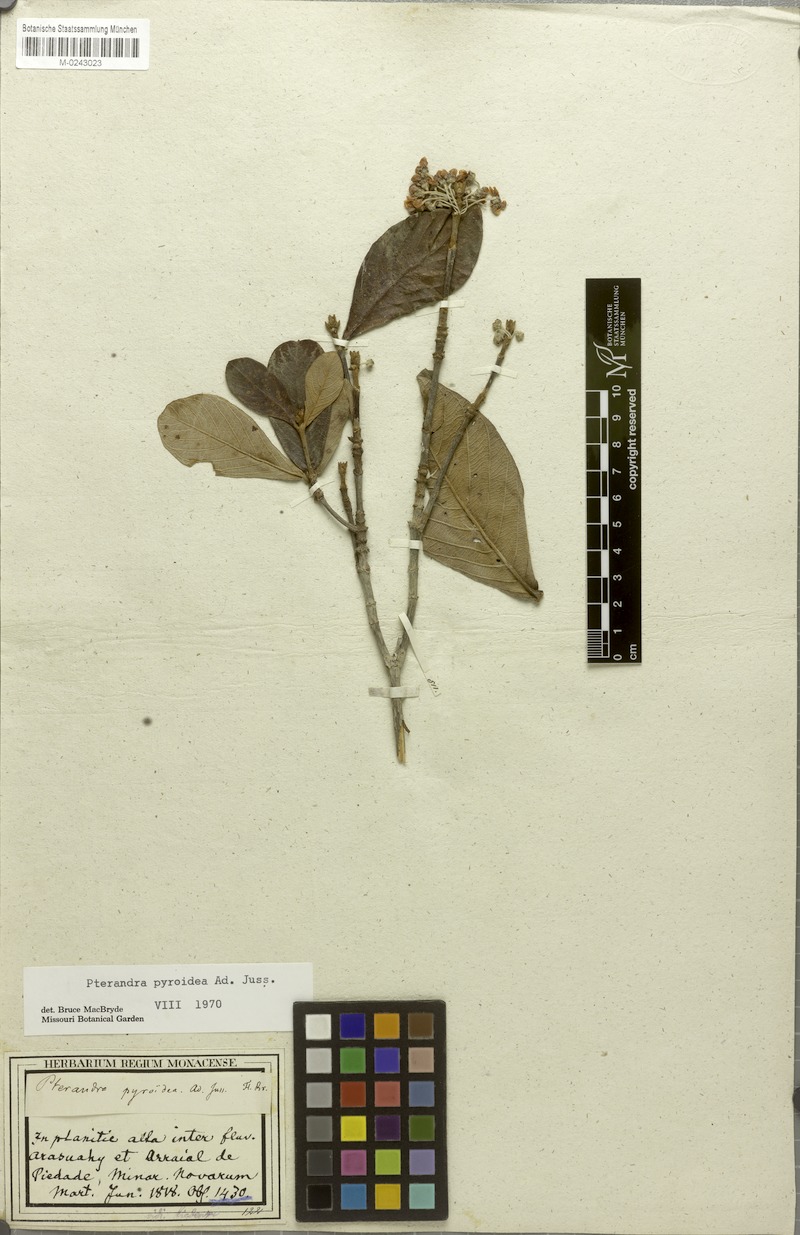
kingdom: Plantae
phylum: Tracheophyta
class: Magnoliopsida
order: Malpighiales
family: Malpighiaceae
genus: Pterandra
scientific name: Pterandra pyroidea
